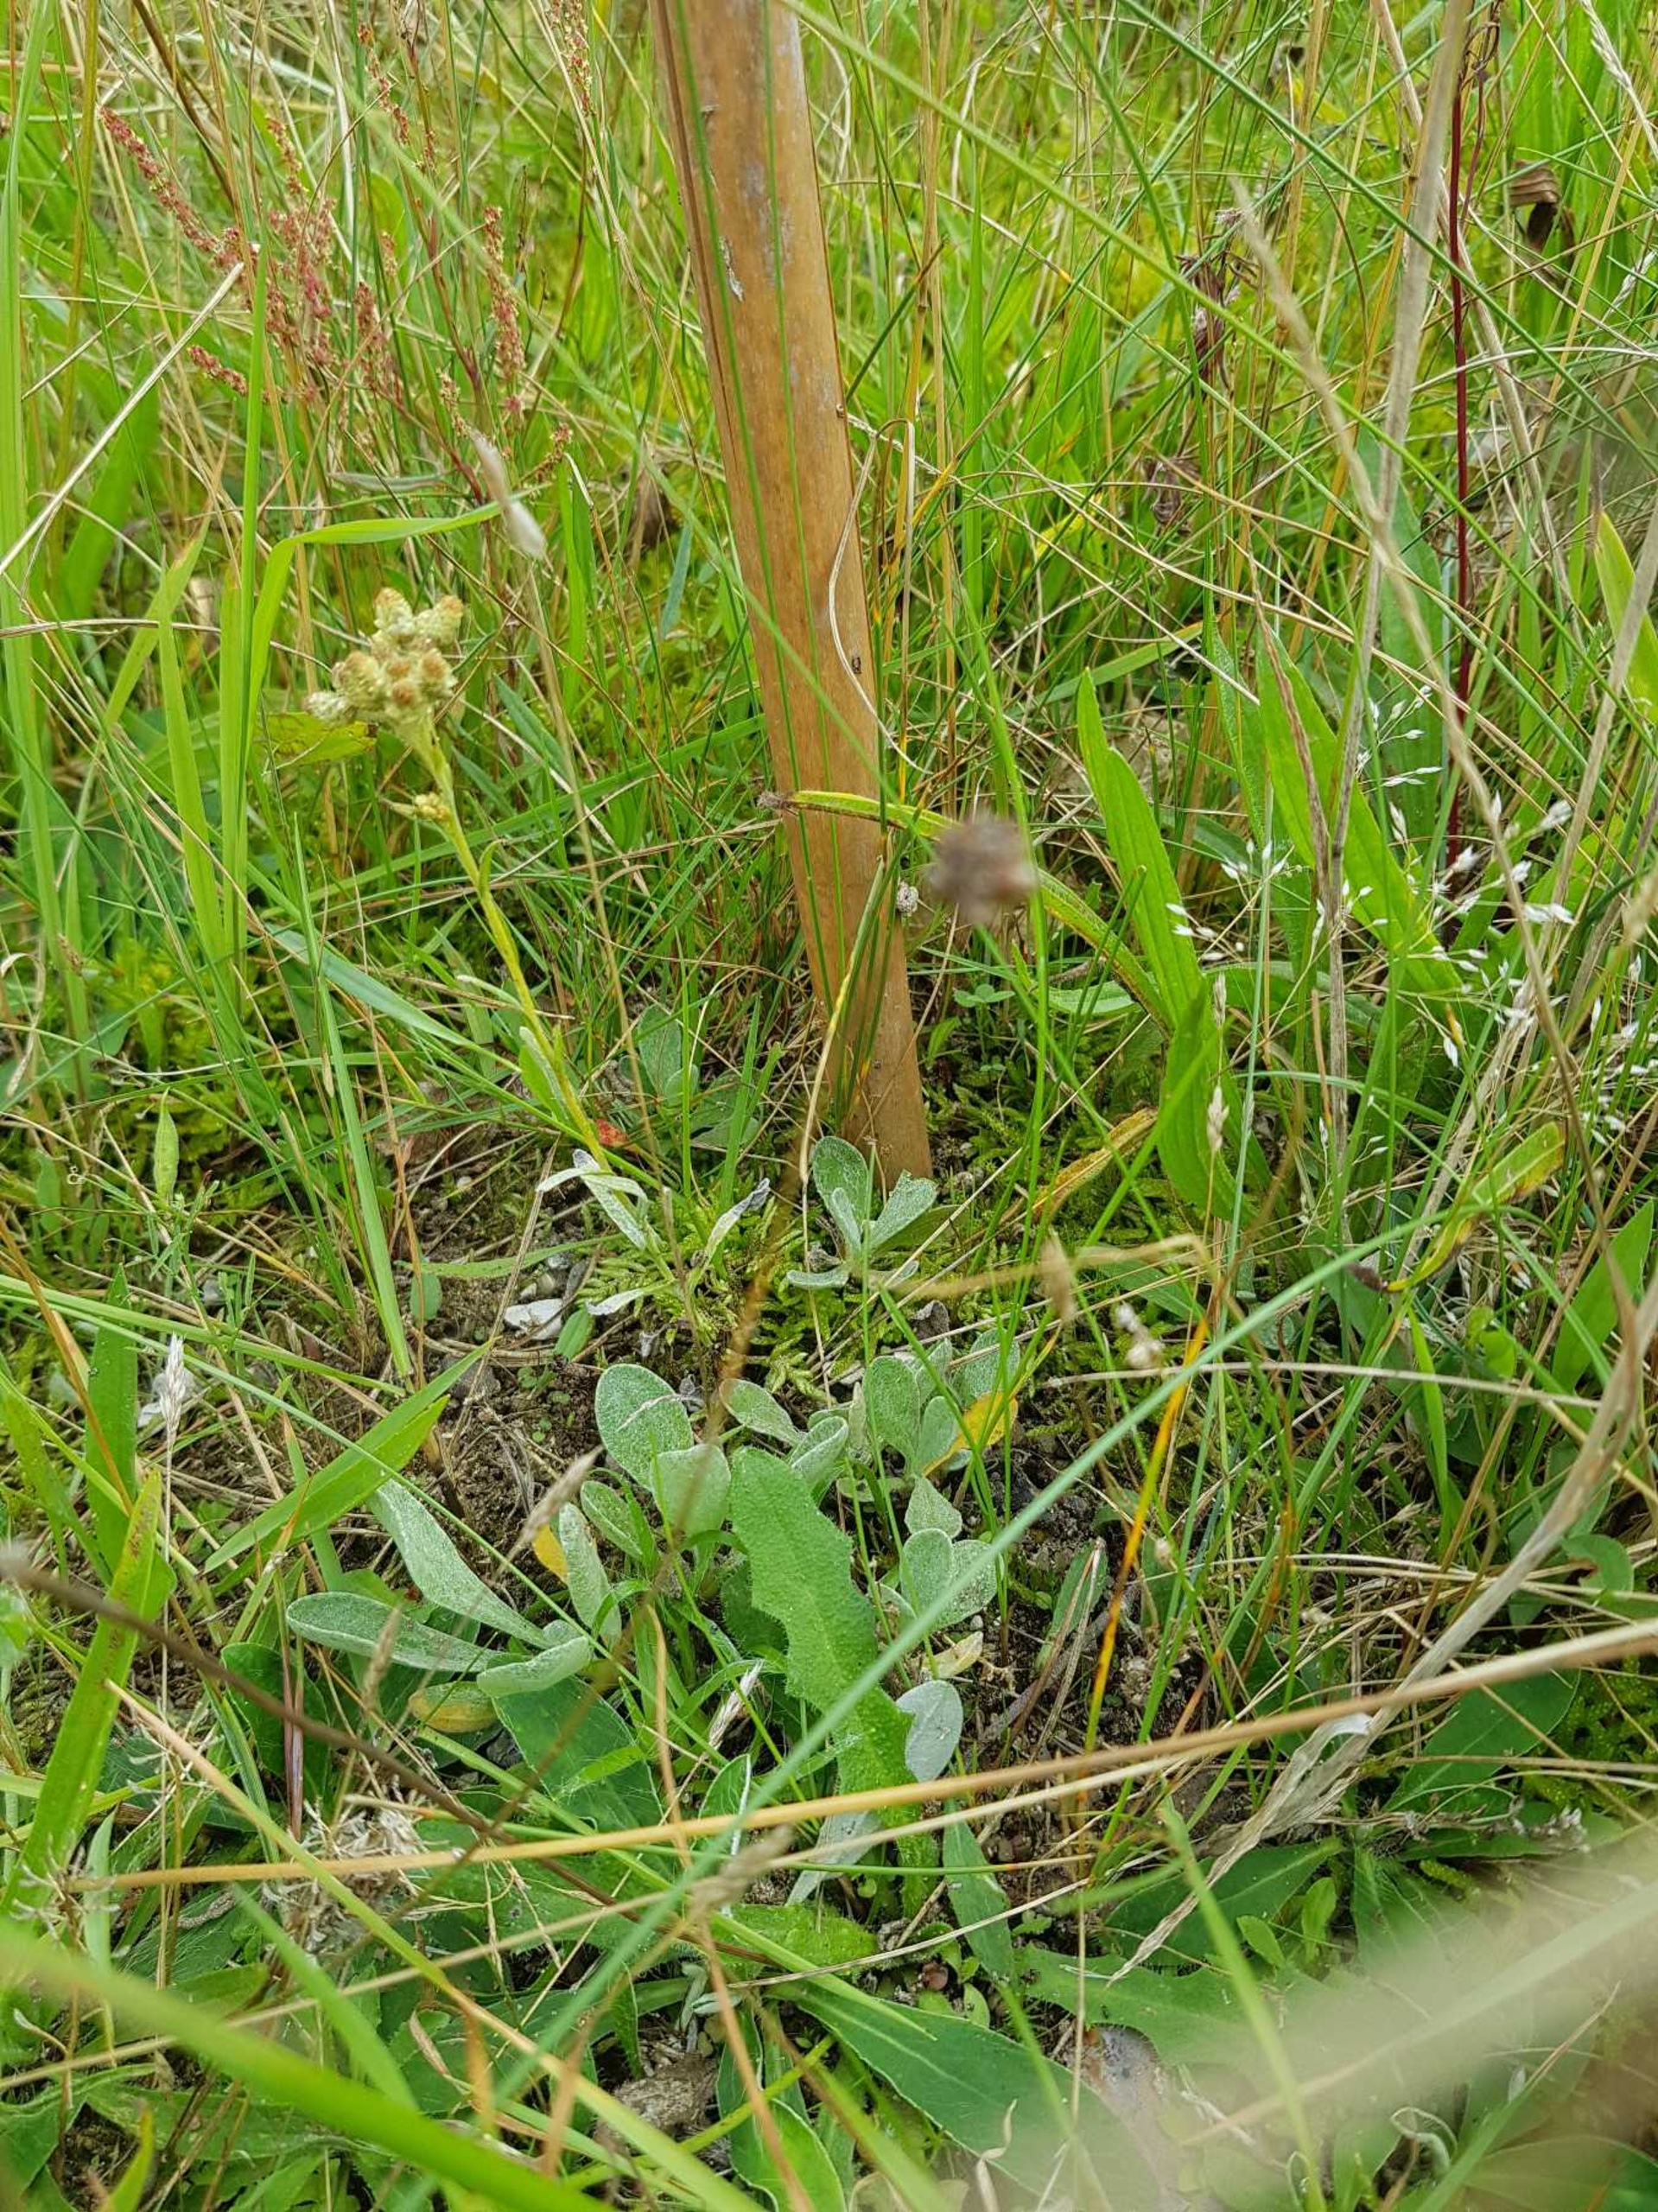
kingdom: Plantae
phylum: Tracheophyta
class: Magnoliopsida
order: Asterales
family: Asteraceae
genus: Helichrysum
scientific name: Helichrysum arenarium
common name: Gul evighedsblomst
